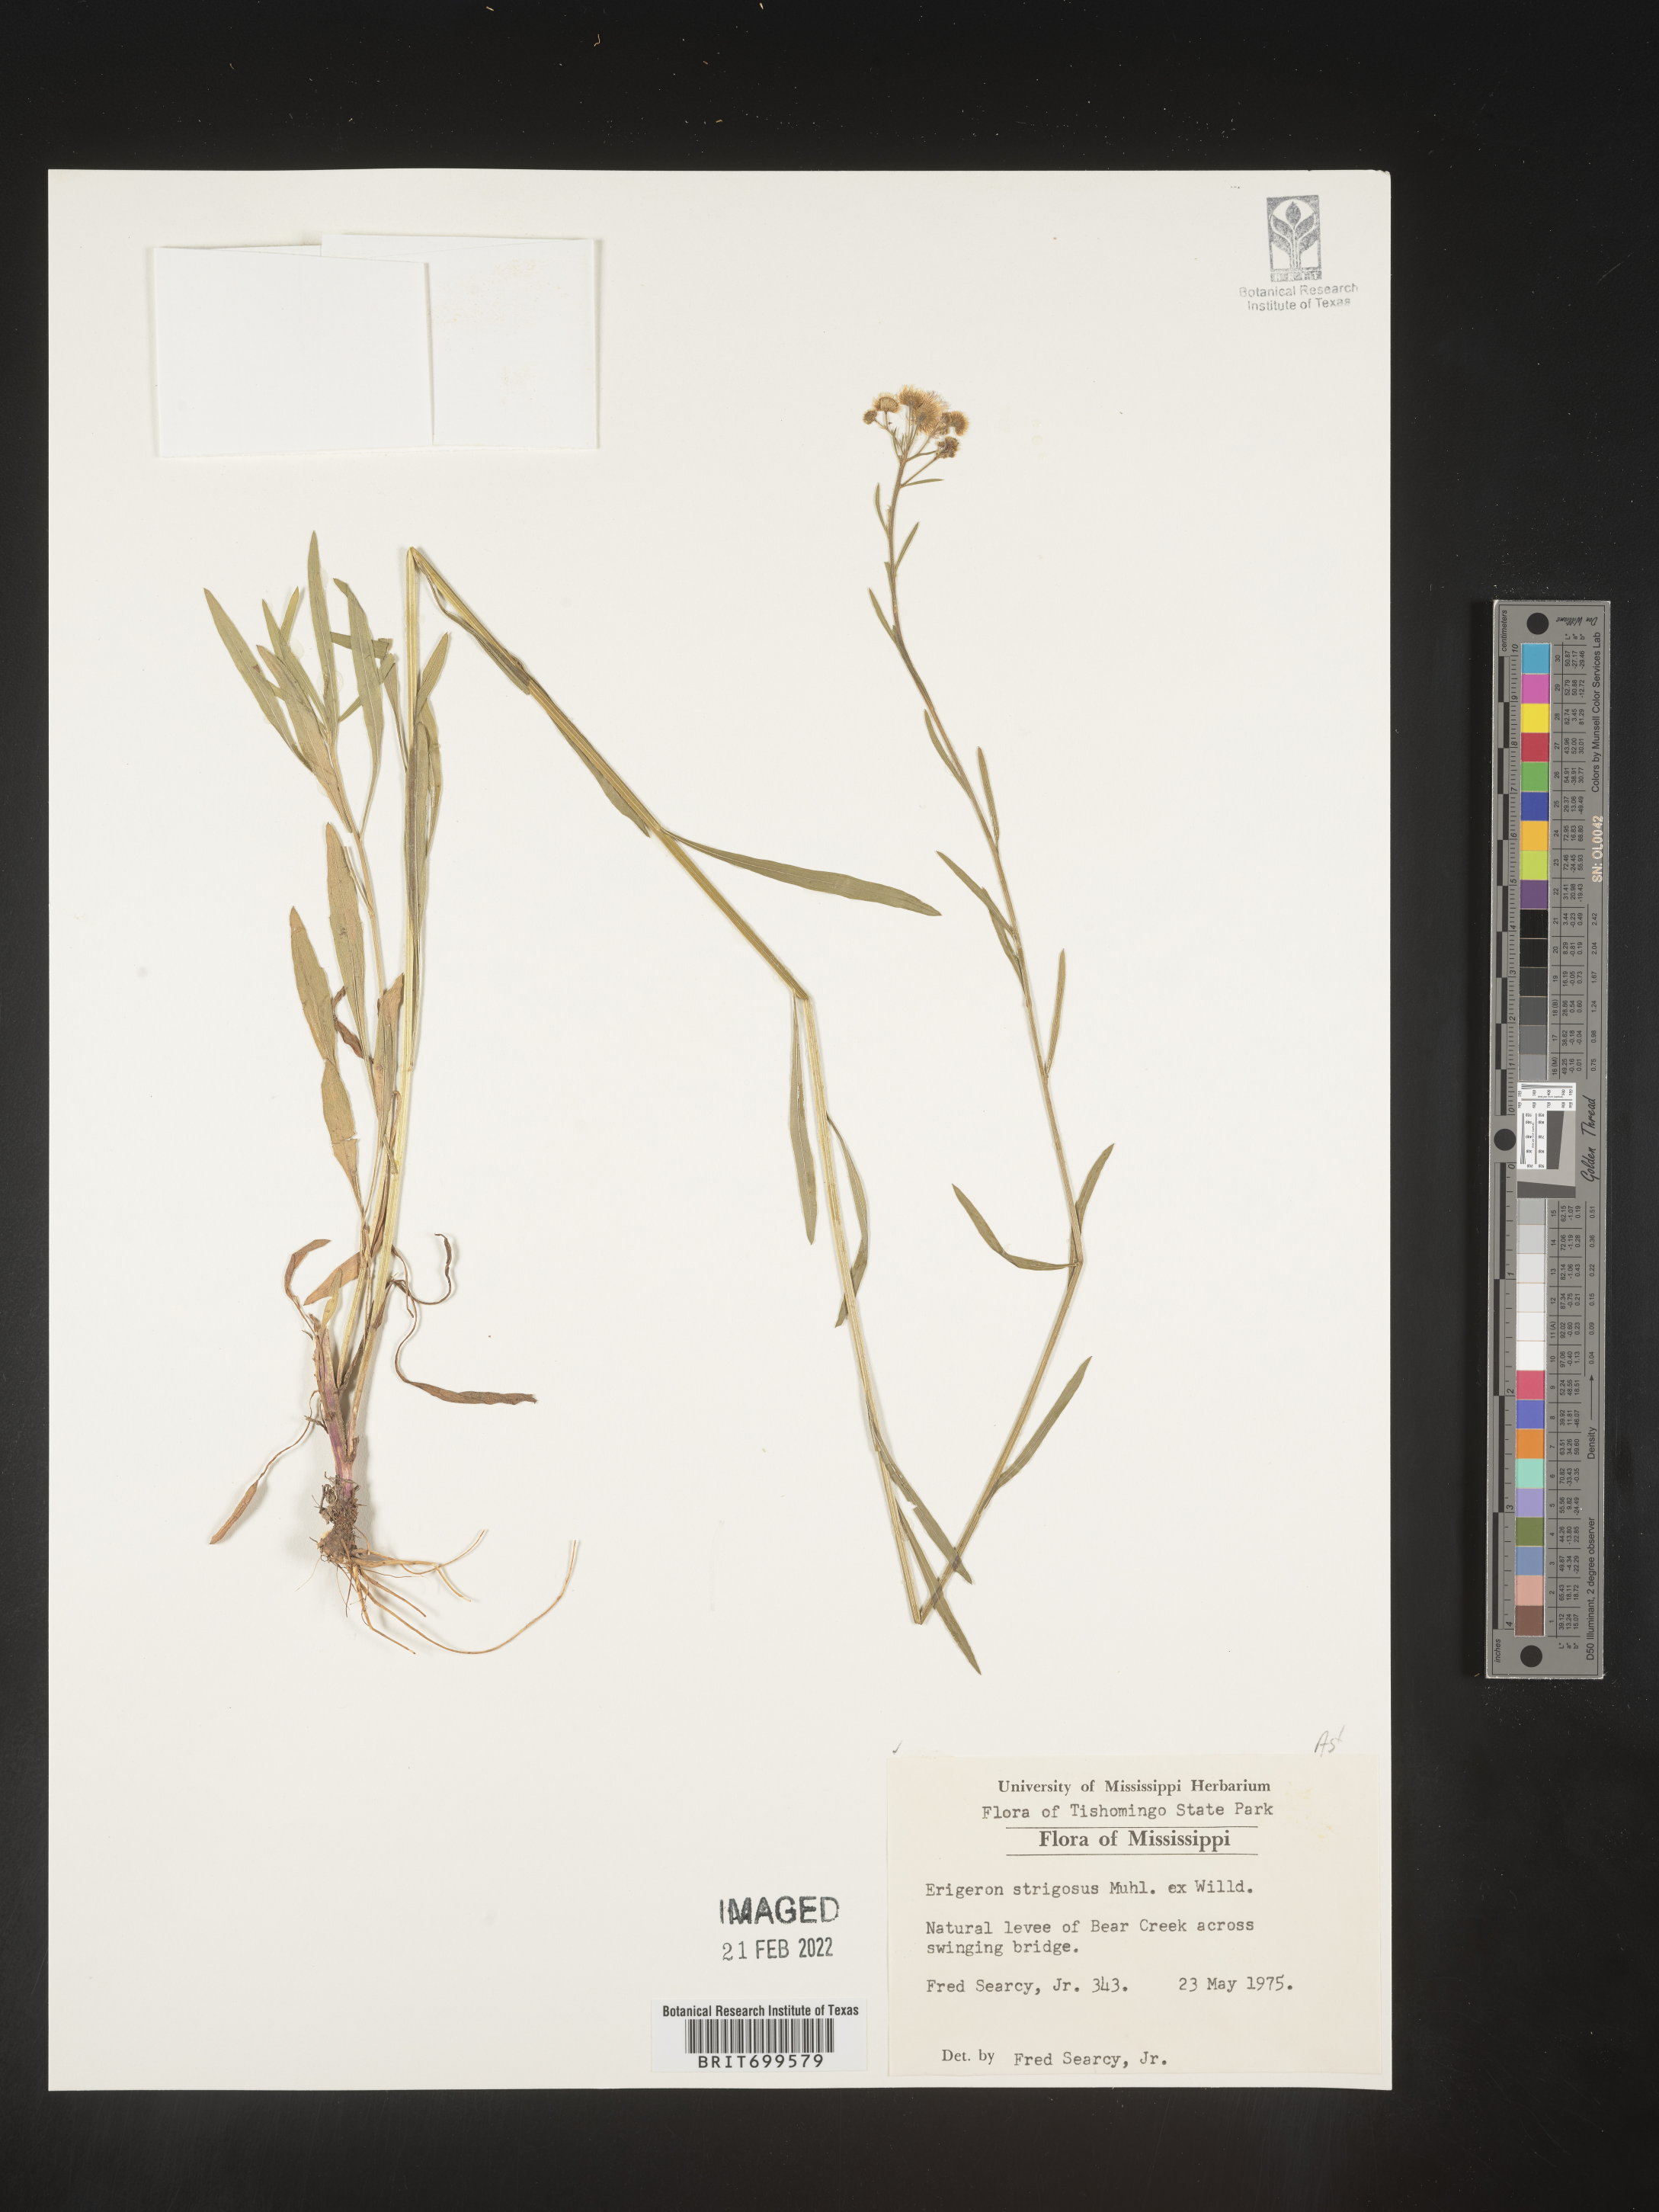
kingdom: Plantae
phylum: Tracheophyta
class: Magnoliopsida
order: Asterales
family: Asteraceae
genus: Erigeron
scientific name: Erigeron strigosus
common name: Common eastern fleabane
